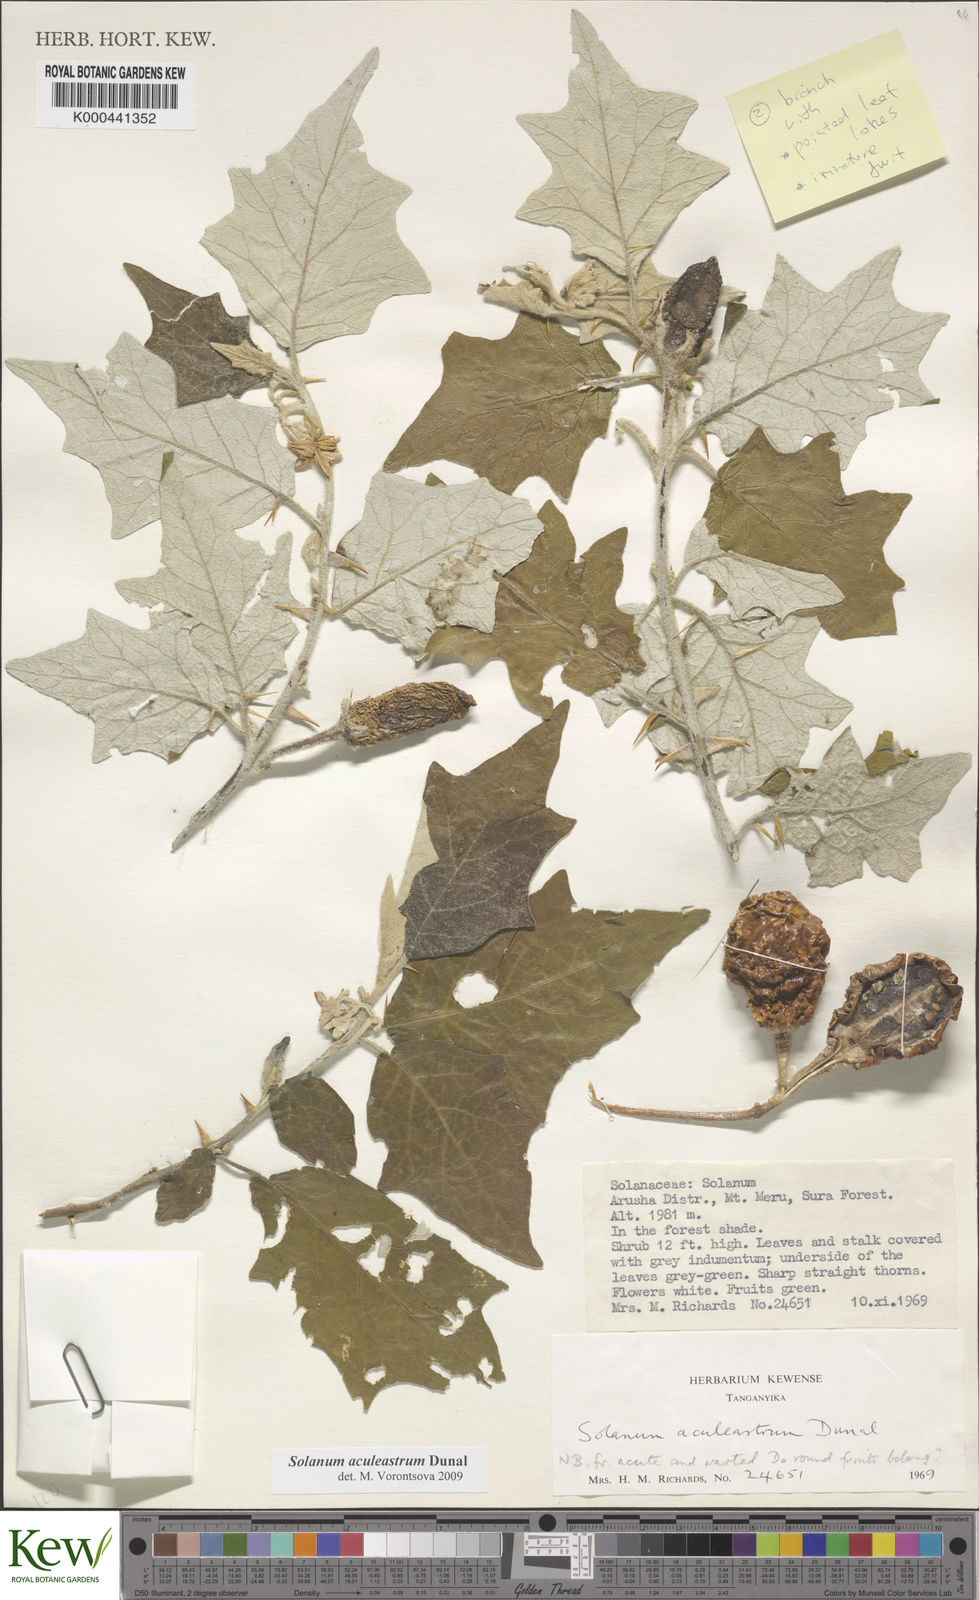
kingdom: Plantae
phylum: Tracheophyta
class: Magnoliopsida
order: Solanales
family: Solanaceae
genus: Solanum
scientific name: Solanum aculeastrum
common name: Goat bitter-apple
